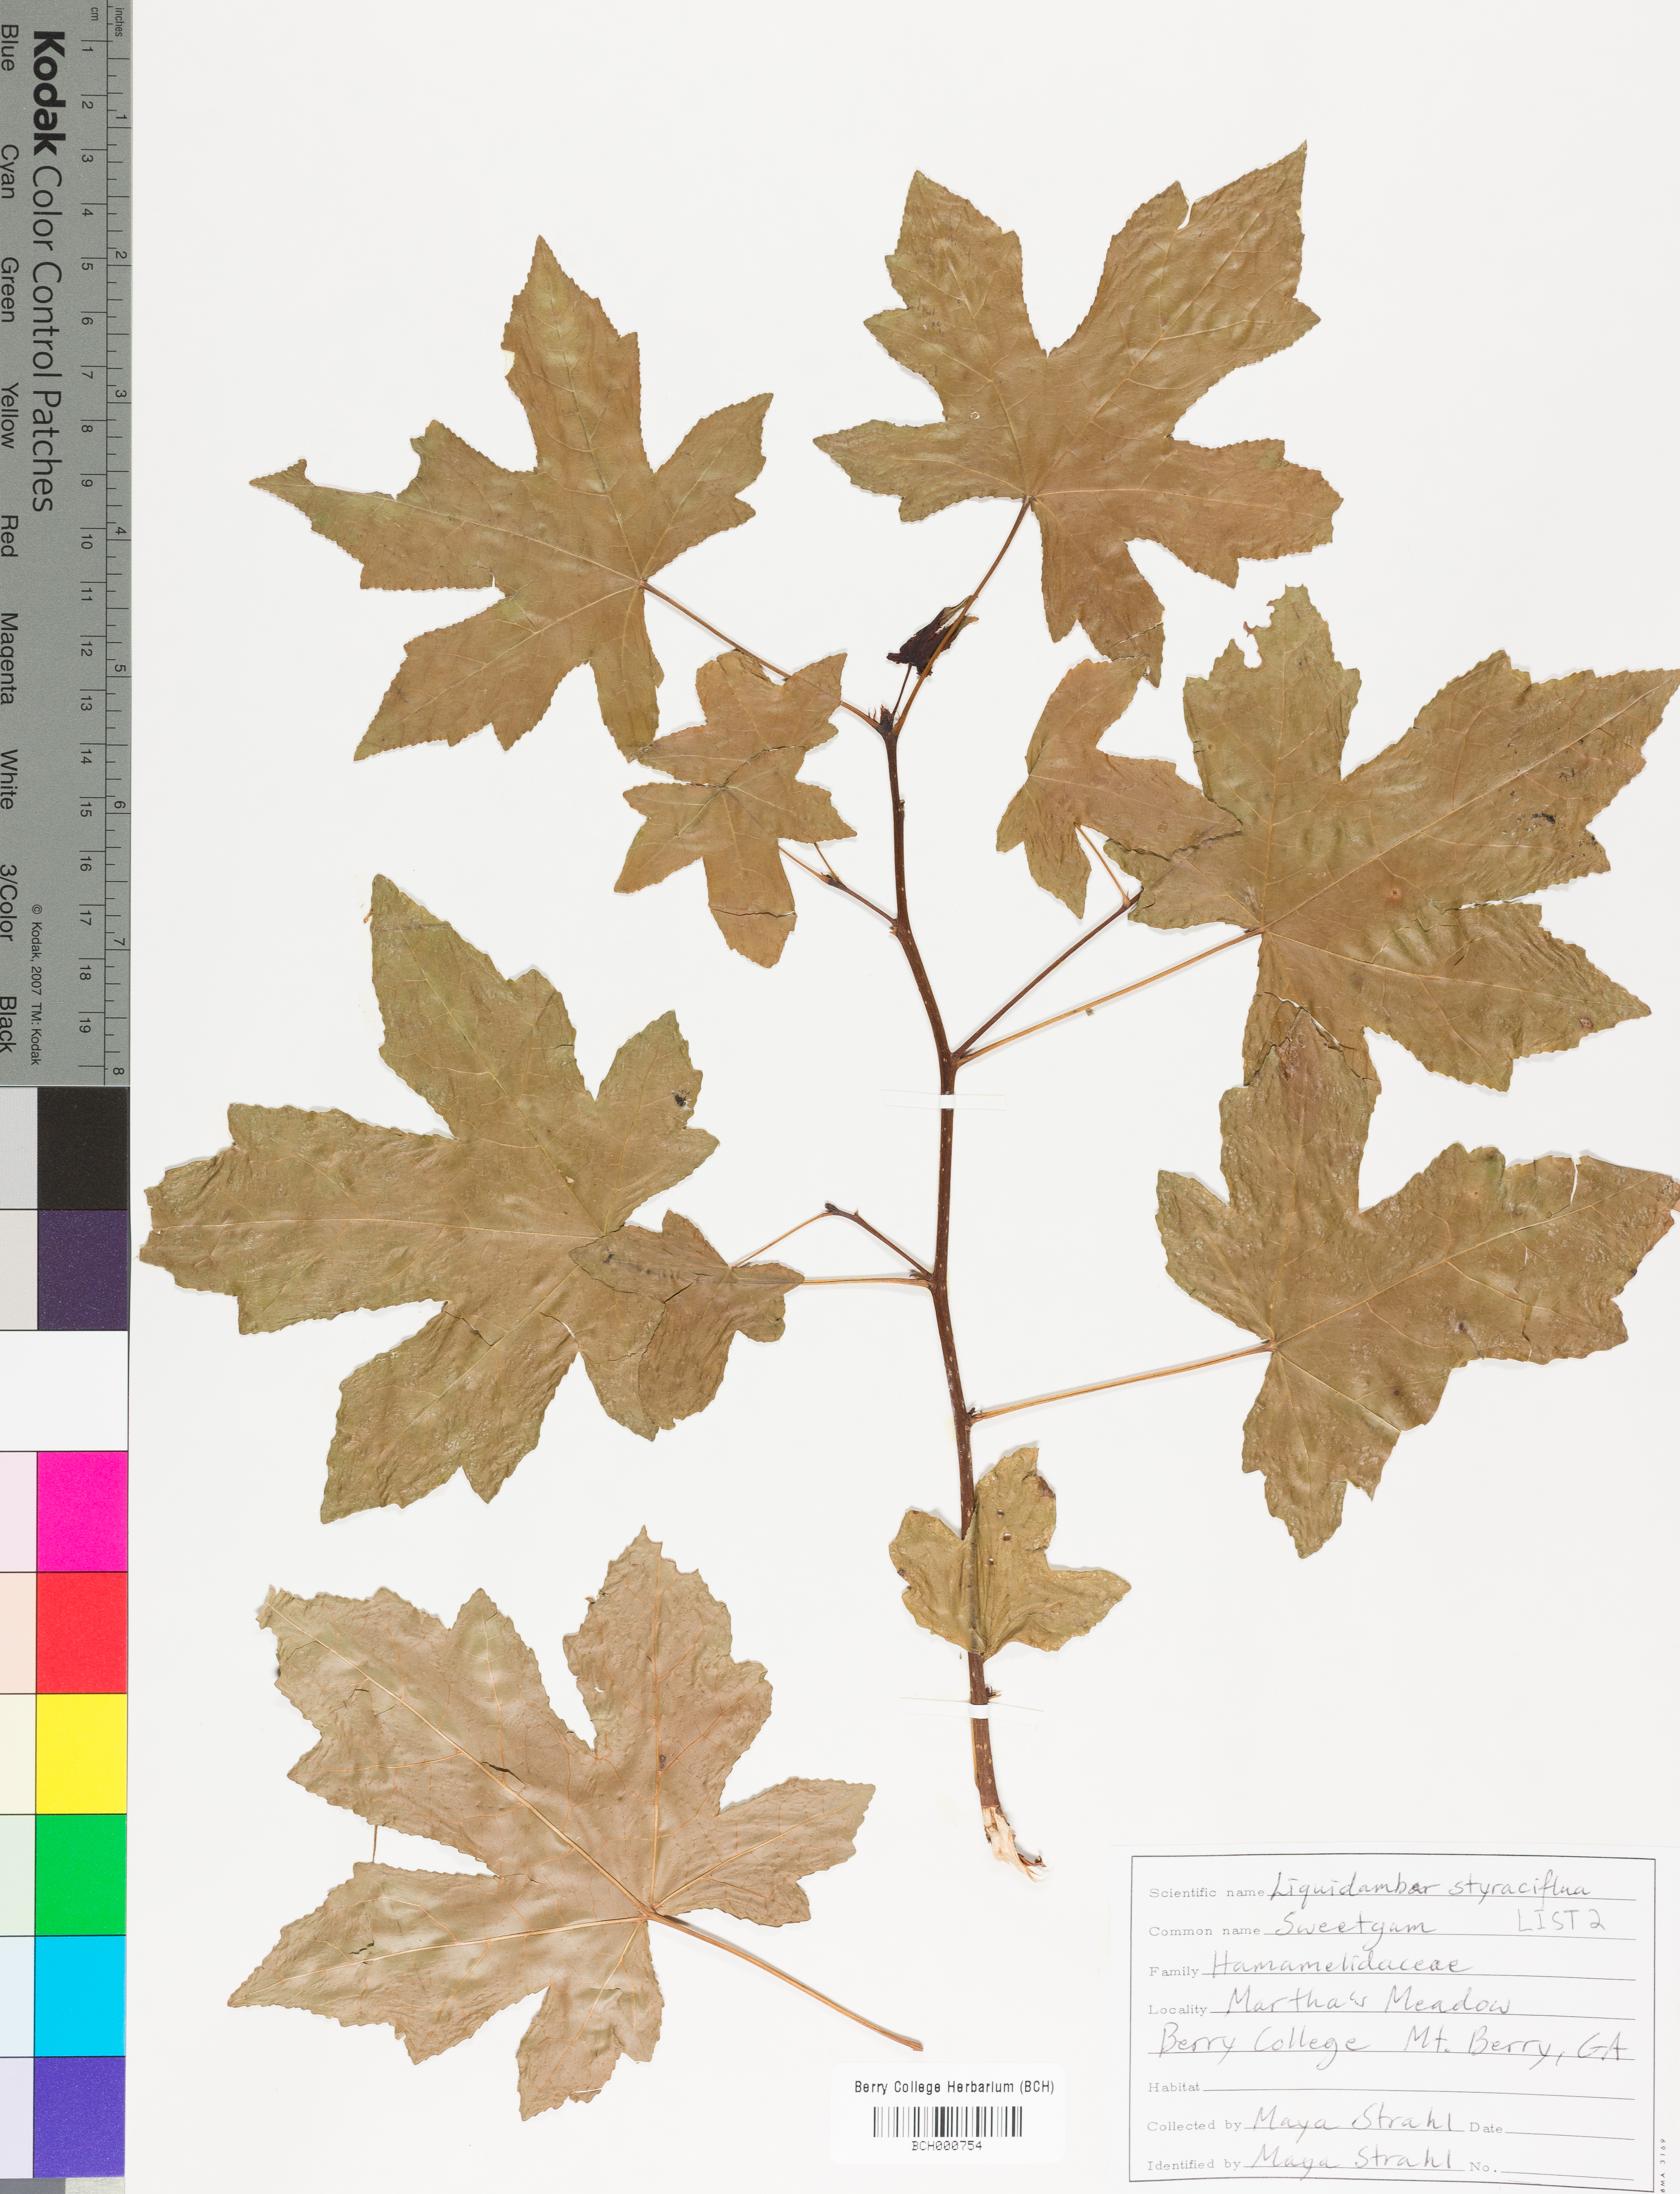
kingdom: Plantae
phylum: Tracheophyta
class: Magnoliopsida
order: Saxifragales
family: Altingiaceae
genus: Liquidambar
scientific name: Liquidambar styraciflua
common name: Sweet gum
